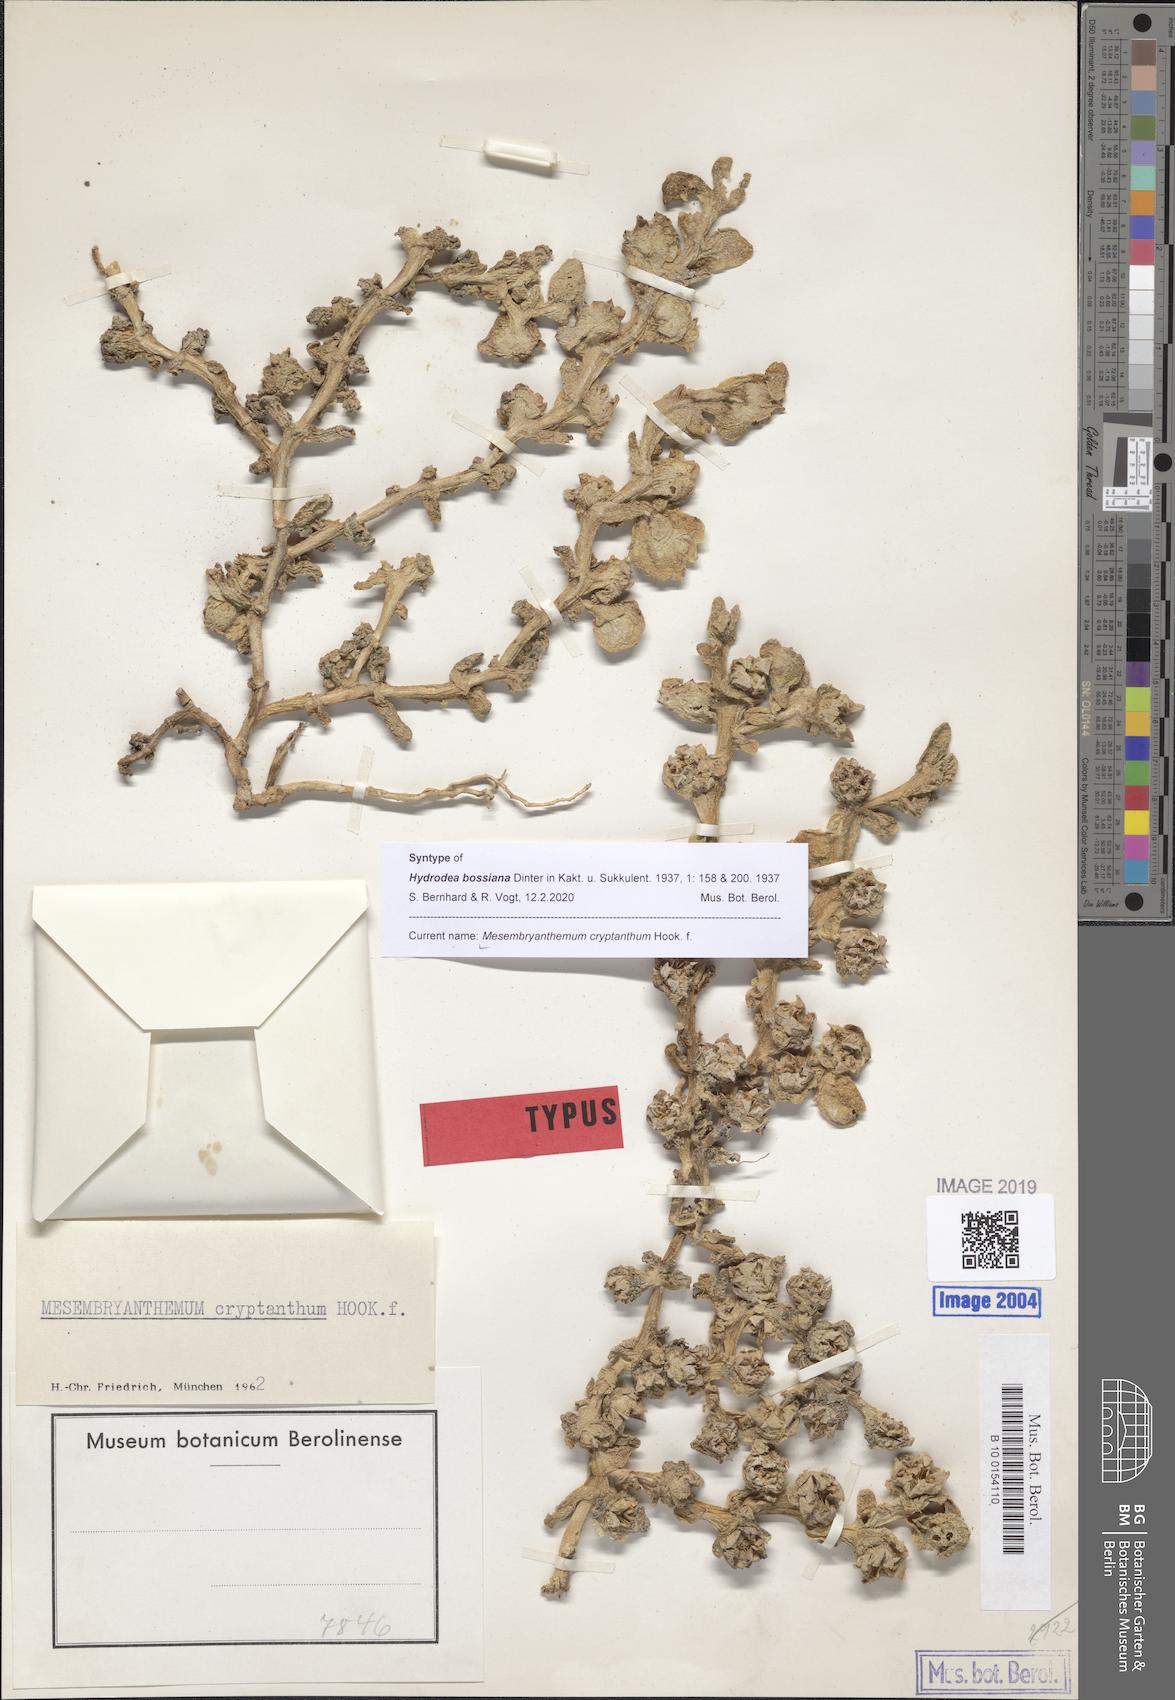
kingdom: Plantae
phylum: Tracheophyta
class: Magnoliopsida
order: Caryophyllales
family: Aizoaceae
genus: Mesembryanthemum
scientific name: Mesembryanthemum cryptanthum
